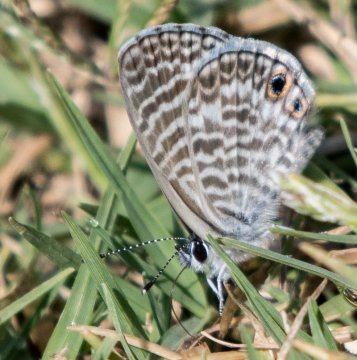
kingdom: Animalia
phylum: Arthropoda
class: Insecta
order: Lepidoptera
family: Lycaenidae
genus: Leptotes
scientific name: Leptotes marina
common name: Marine Blue
